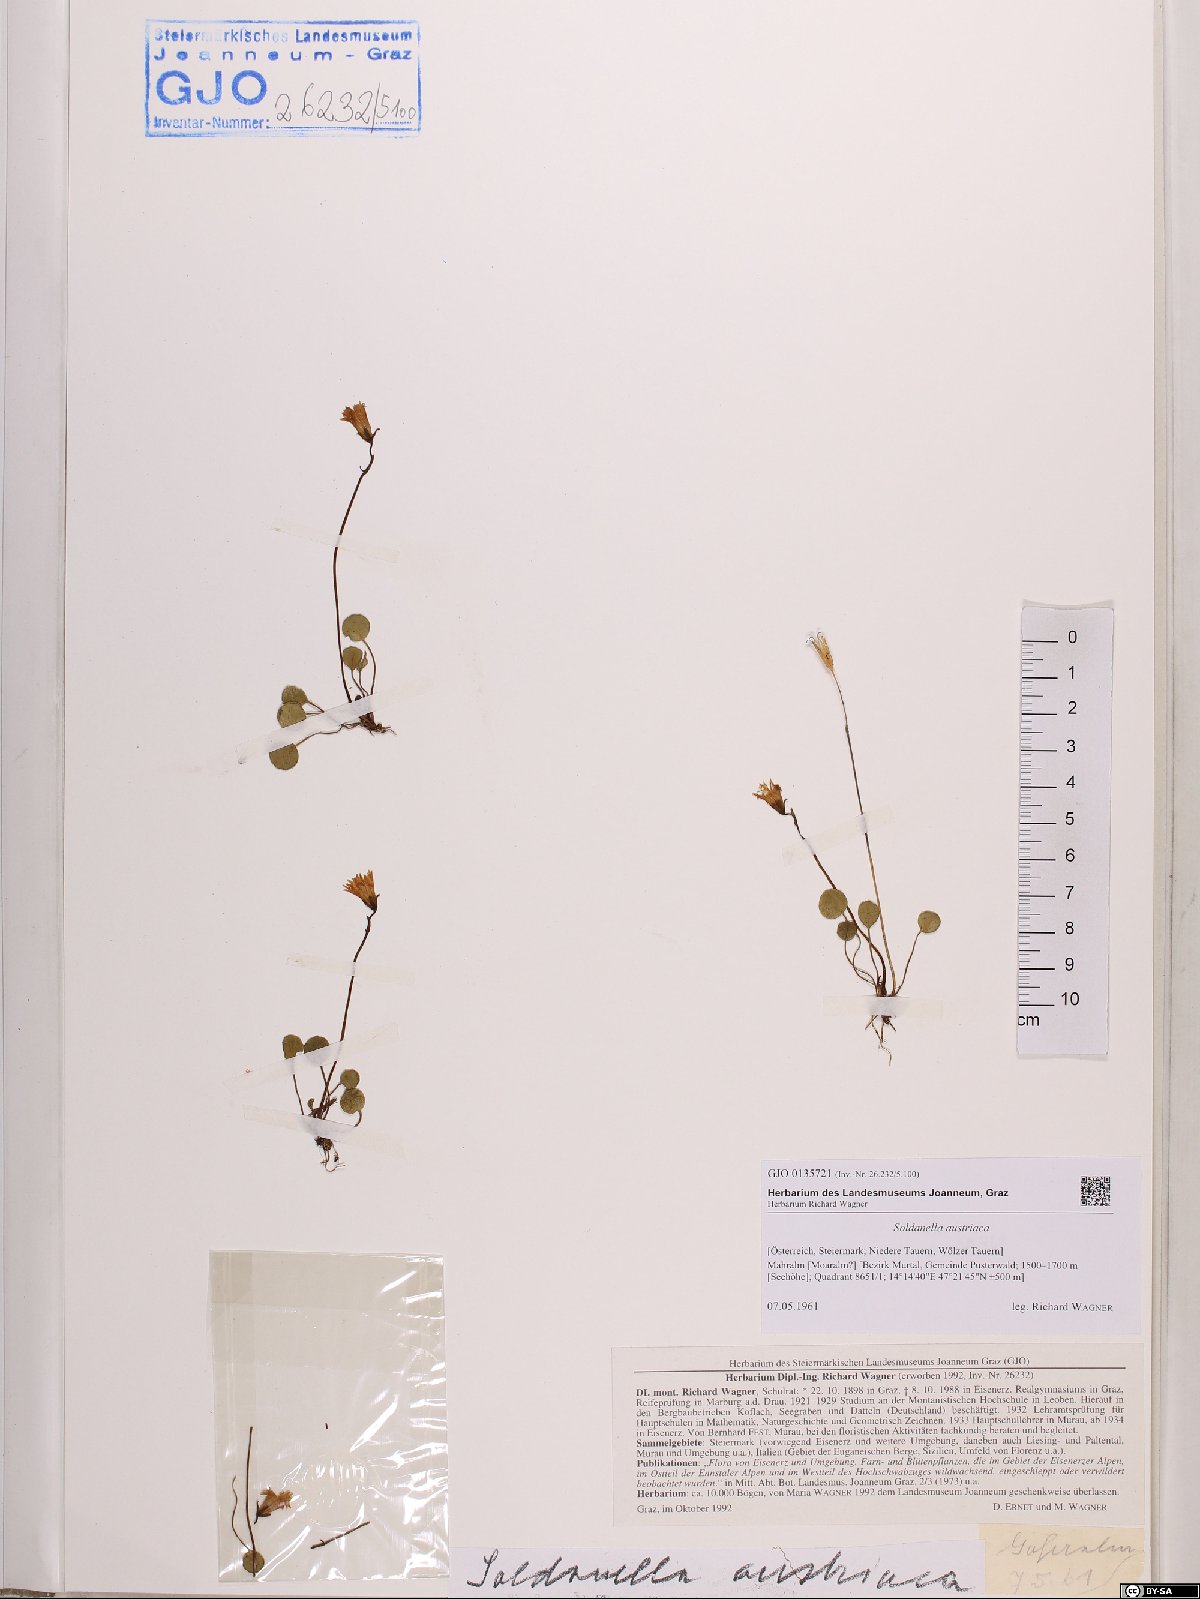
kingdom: Plantae
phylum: Tracheophyta
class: Magnoliopsida
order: Ericales
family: Primulaceae
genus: Soldanella
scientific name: Soldanella austriaca
